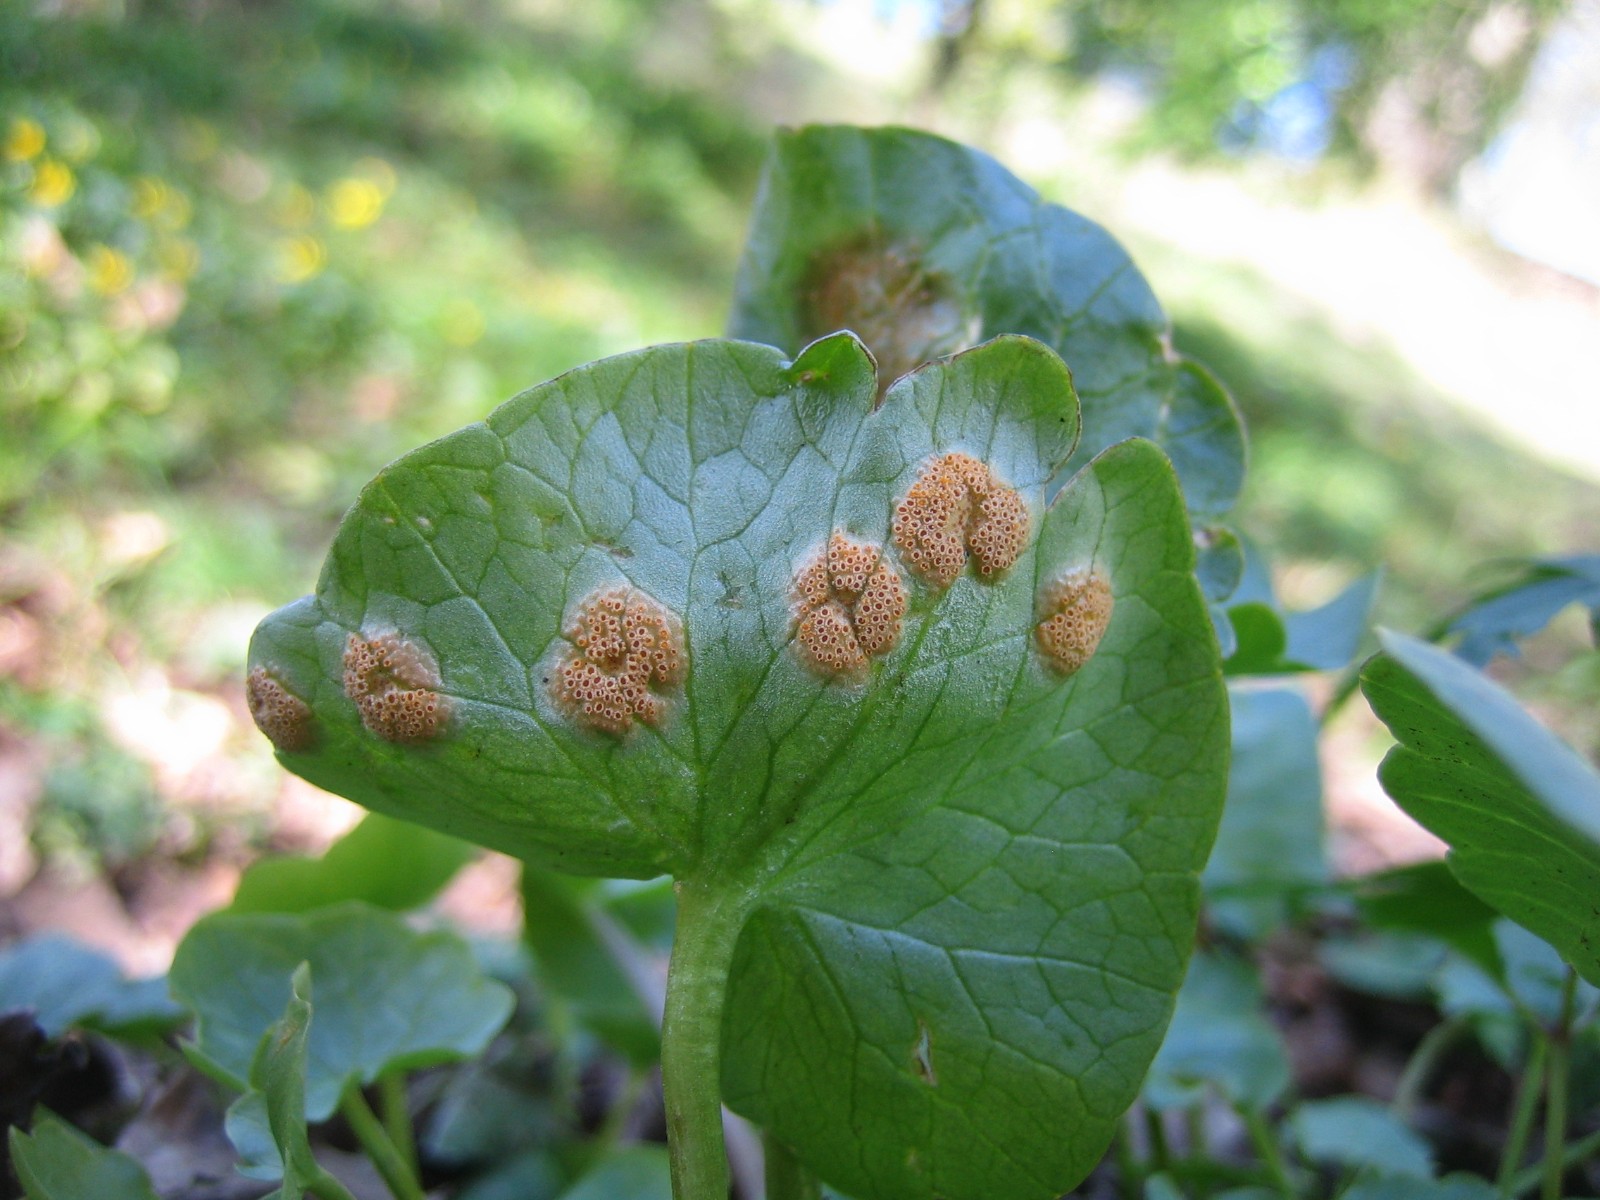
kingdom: Fungi
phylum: Basidiomycota
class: Pucciniomycetes
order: Pucciniales
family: Pucciniaceae
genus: Uromyces
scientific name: Uromyces dactylidis
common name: ranunkel-encellerust
